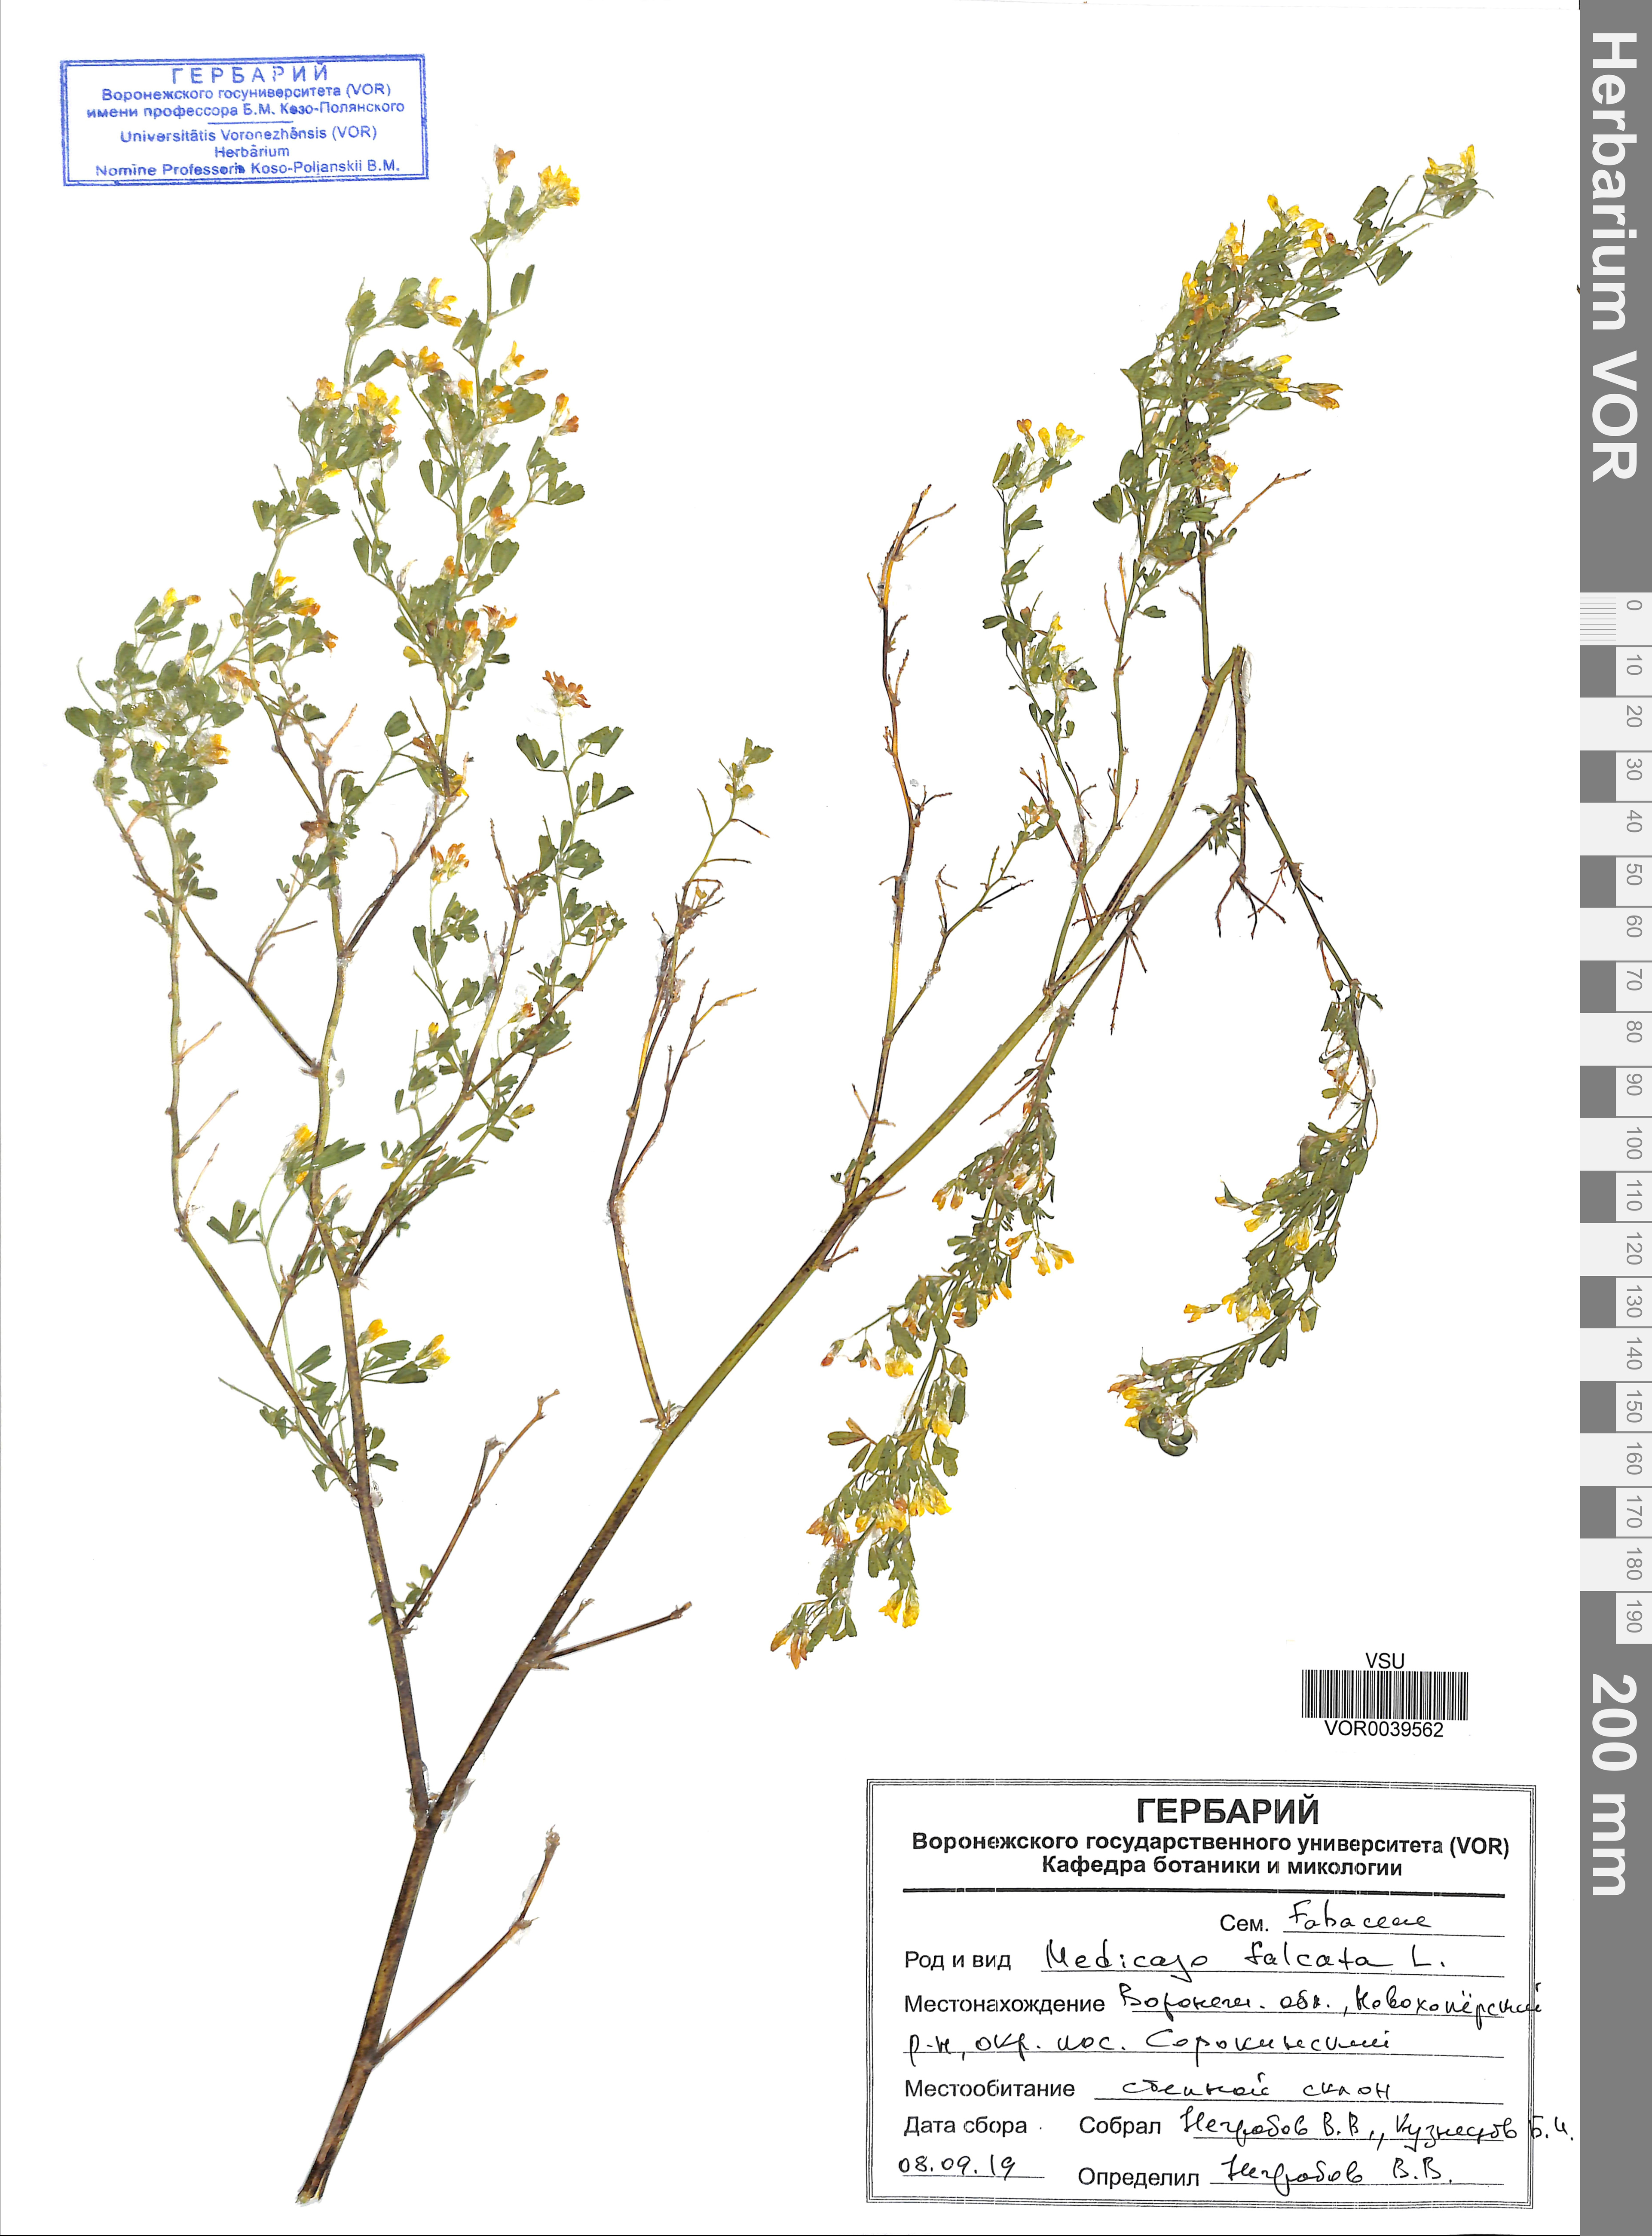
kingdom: Plantae
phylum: Tracheophyta
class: Magnoliopsida
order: Fabales
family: Fabaceae
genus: Medicago
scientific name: Medicago falcata
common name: Sickle medick
